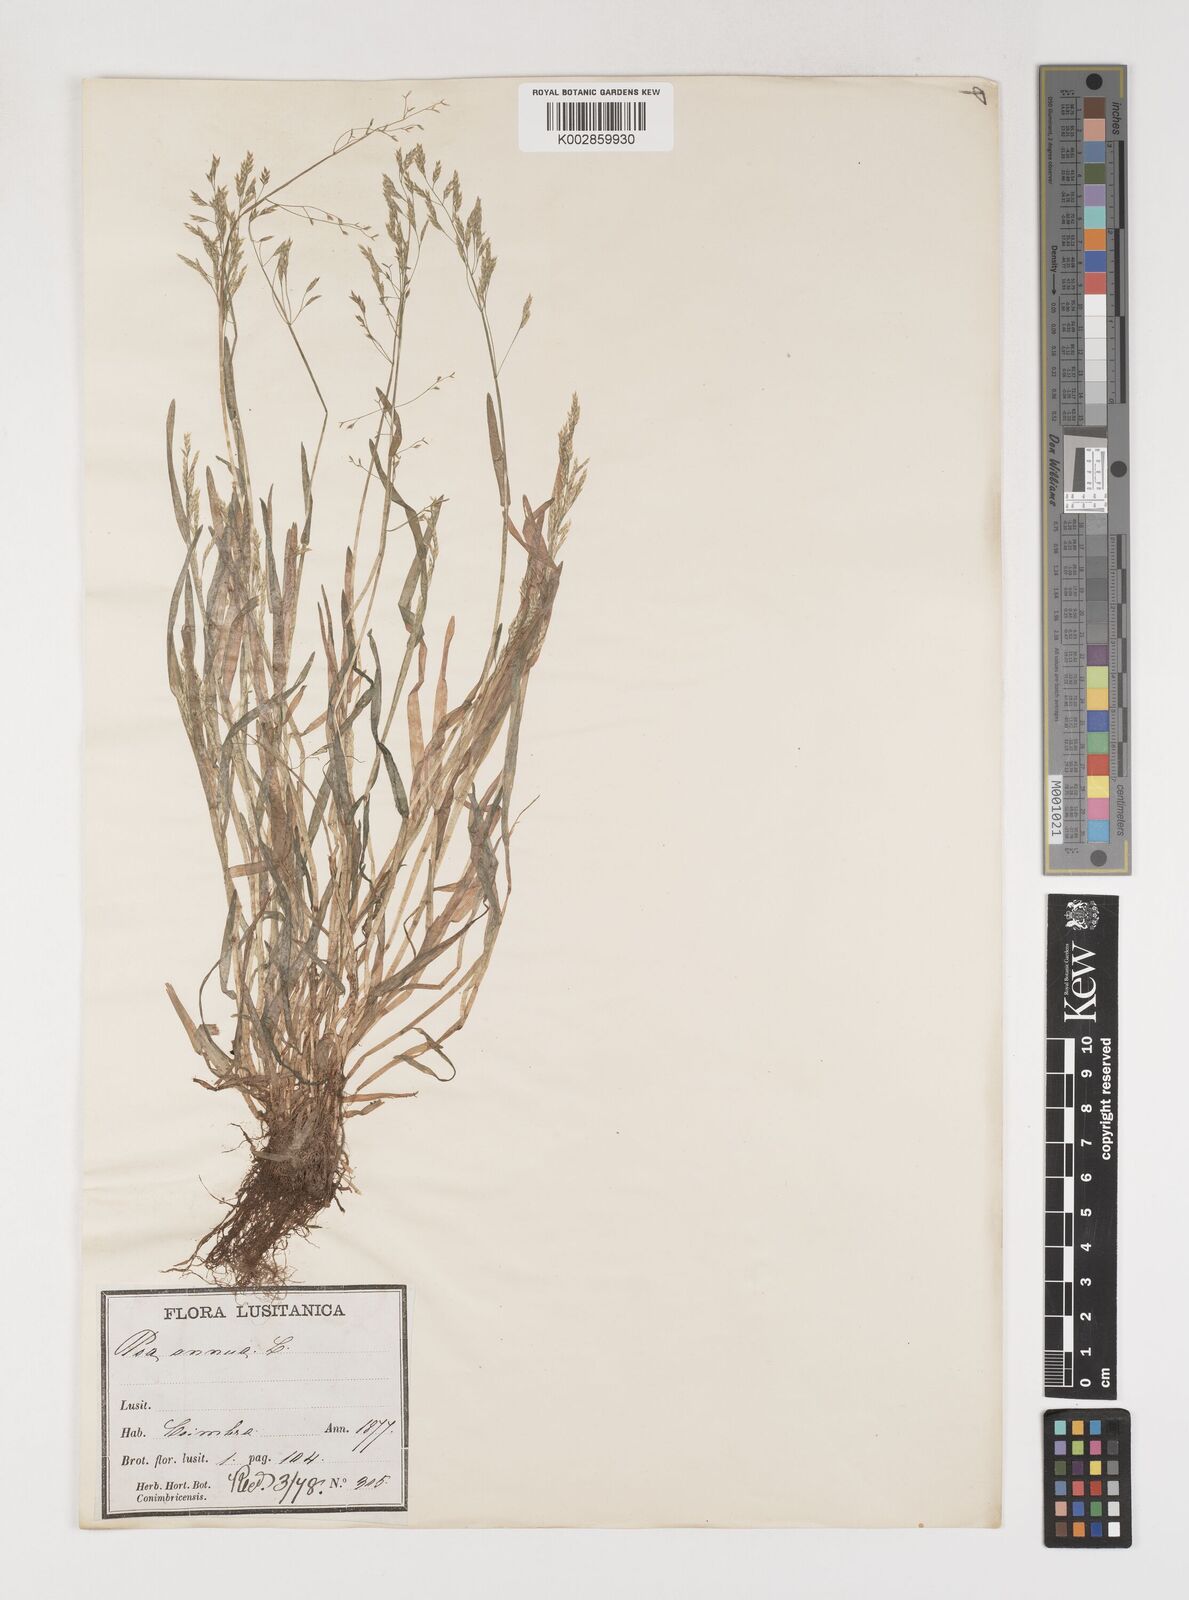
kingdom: Plantae
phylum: Tracheophyta
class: Liliopsida
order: Poales
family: Poaceae
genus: Poa
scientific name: Poa annua
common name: Annual bluegrass
